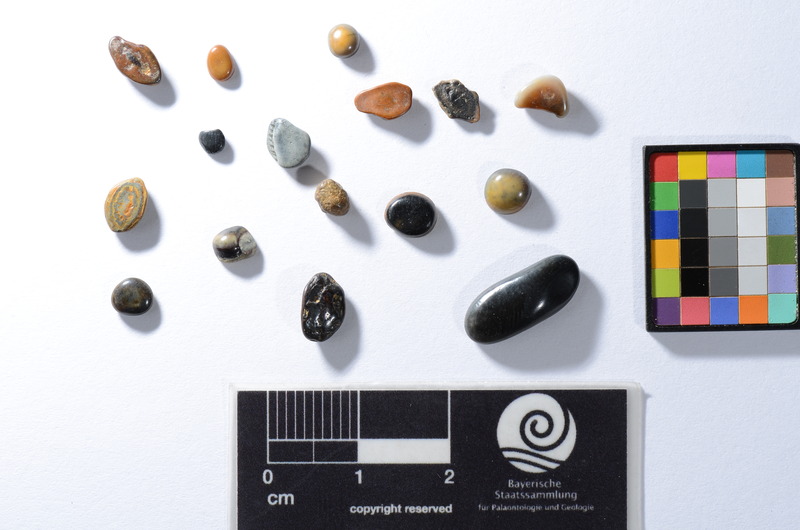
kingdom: Animalia
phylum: Chordata
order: Perciformes
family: Sparidae
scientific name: Sparidae
